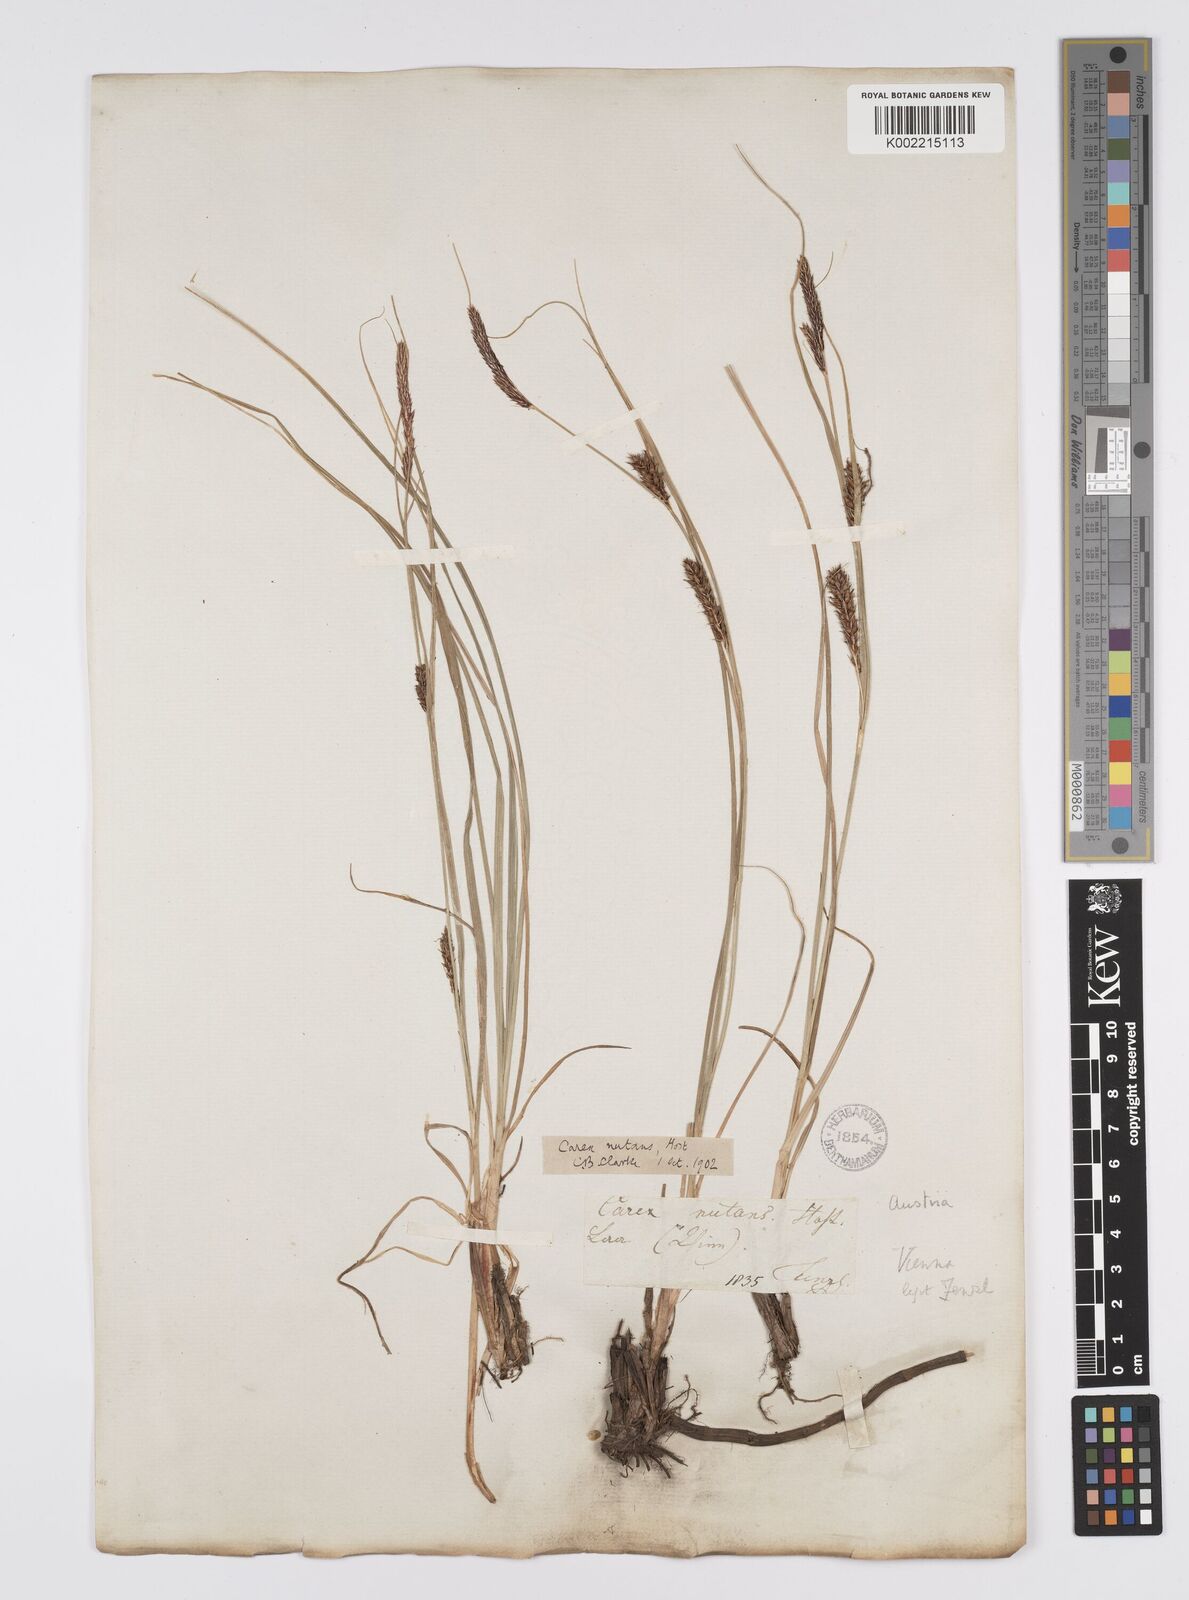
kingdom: Plantae
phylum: Tracheophyta
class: Liliopsida
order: Poales
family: Cyperaceae
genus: Carex
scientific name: Carex melanostachya
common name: Black-spiked sedge
